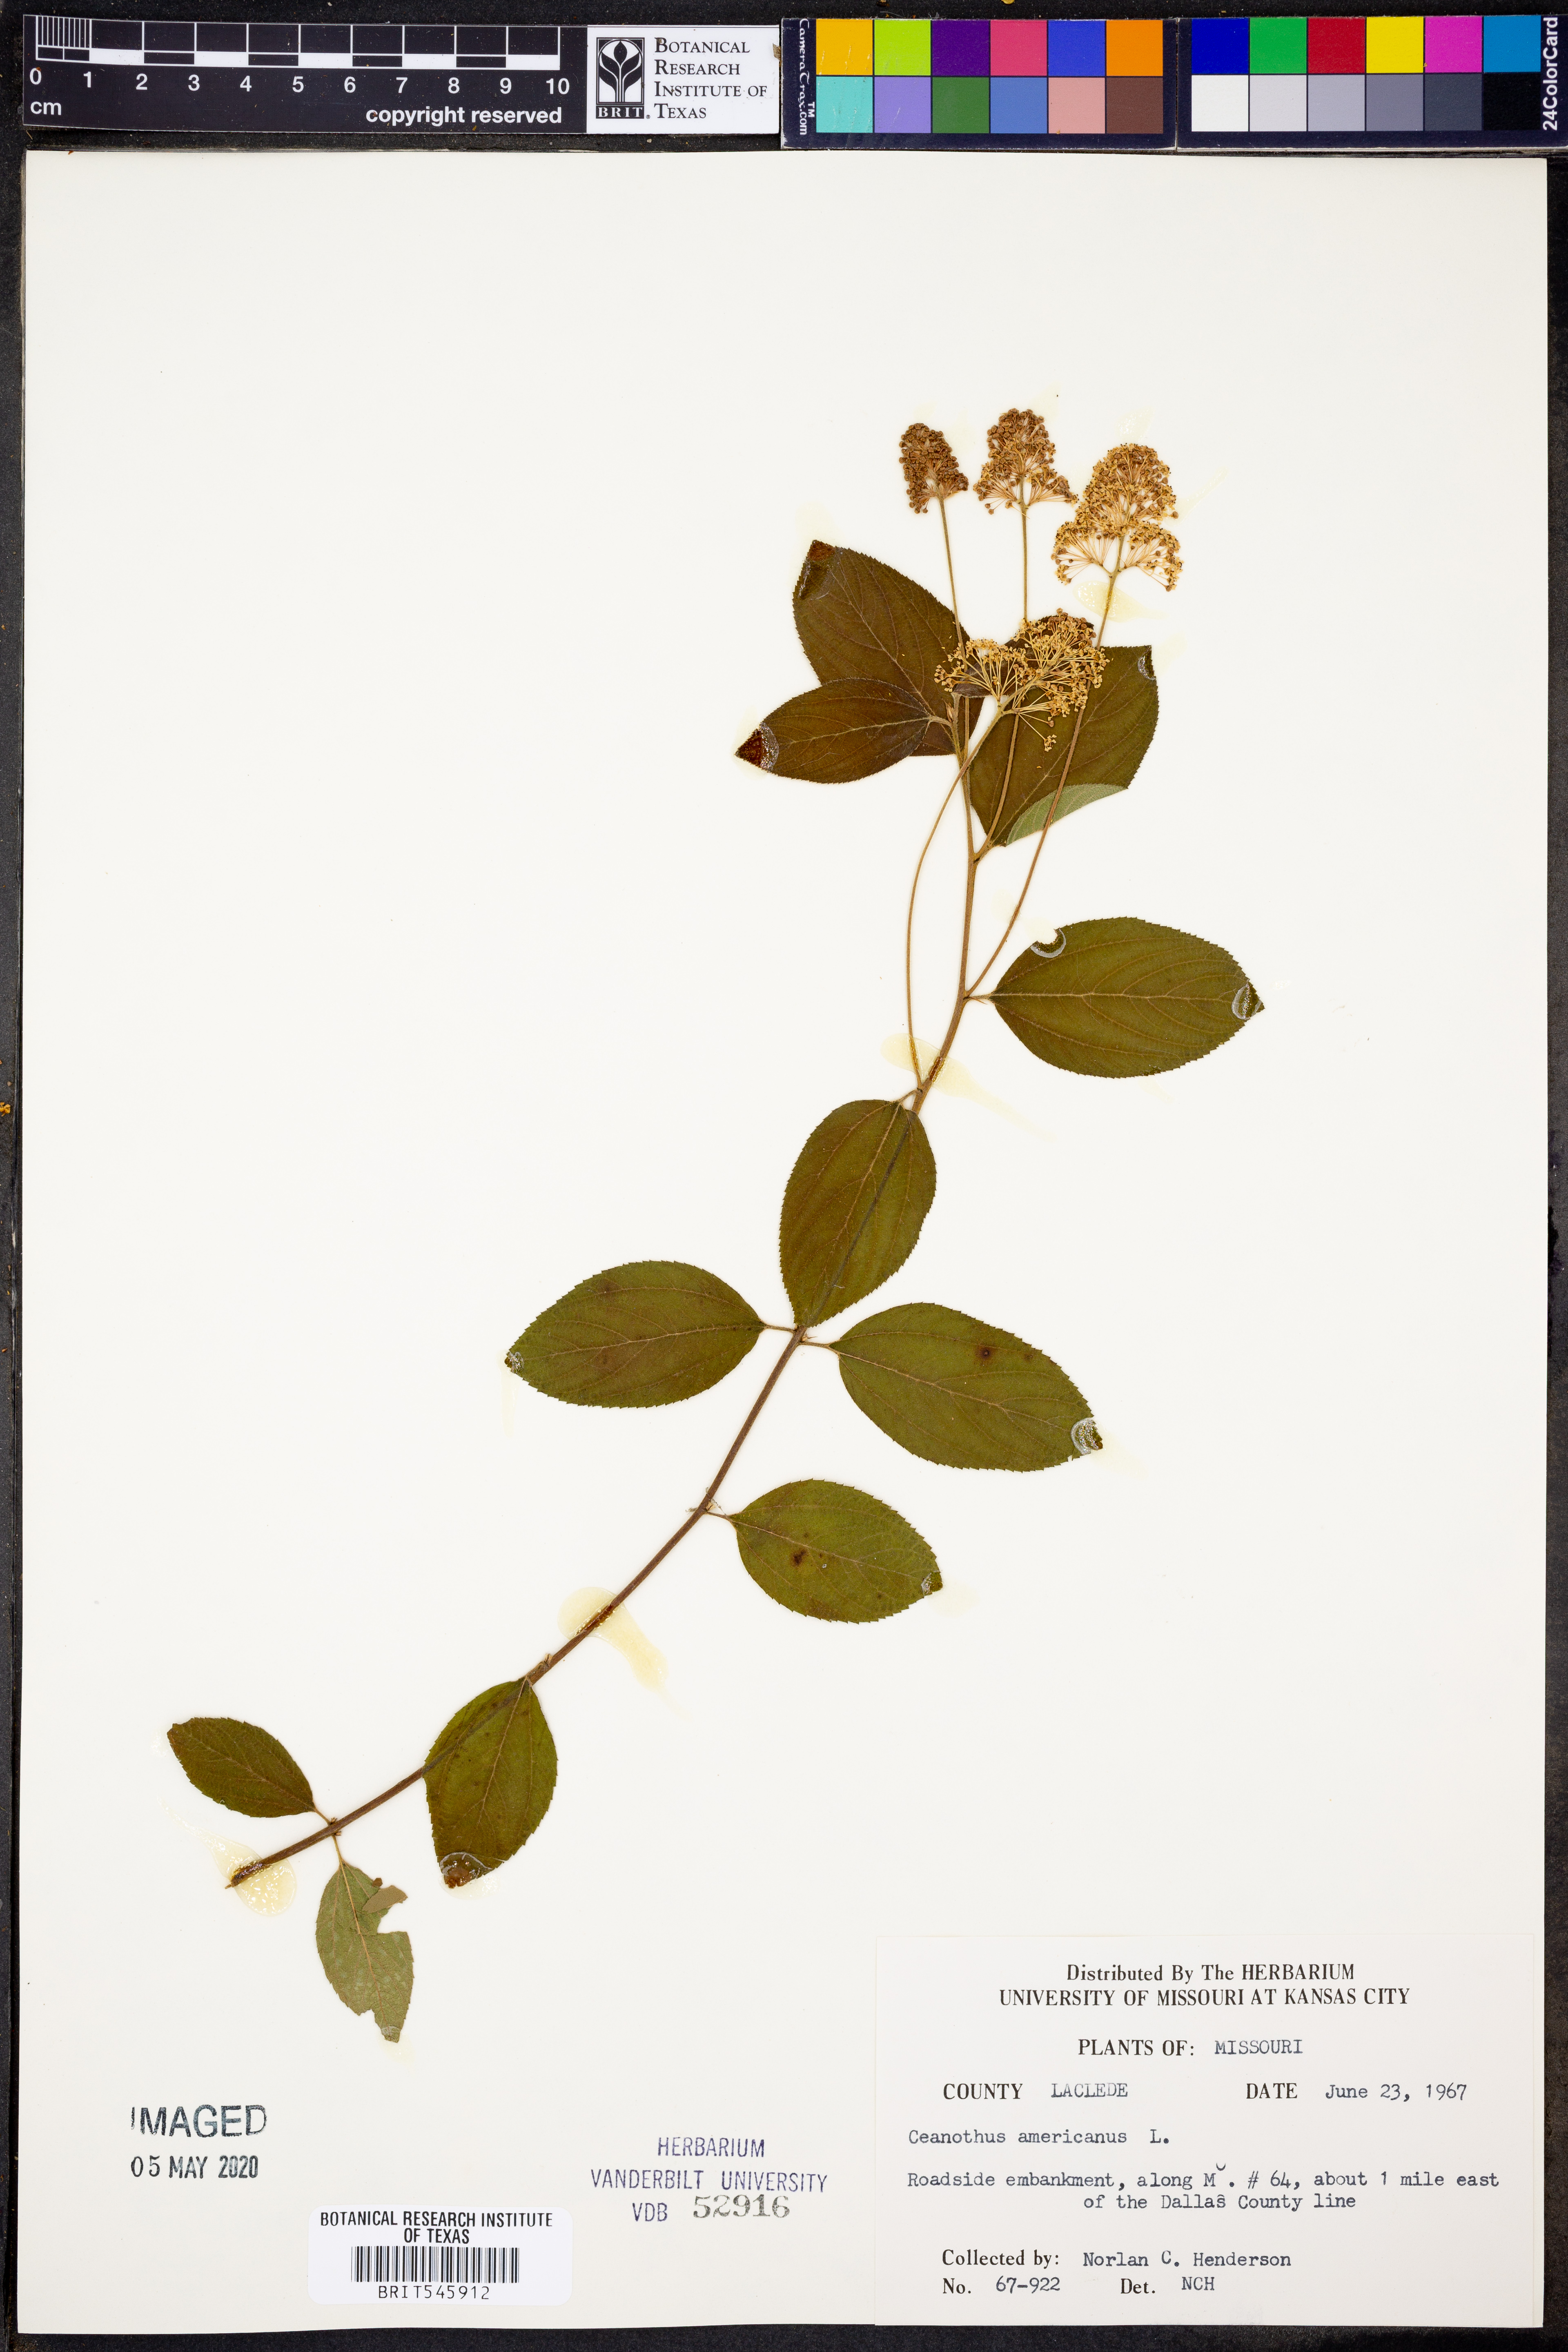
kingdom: Plantae
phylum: Tracheophyta
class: Magnoliopsida
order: Rosales
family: Rhamnaceae
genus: Ceanothus
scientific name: Ceanothus americanus
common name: Redroot
